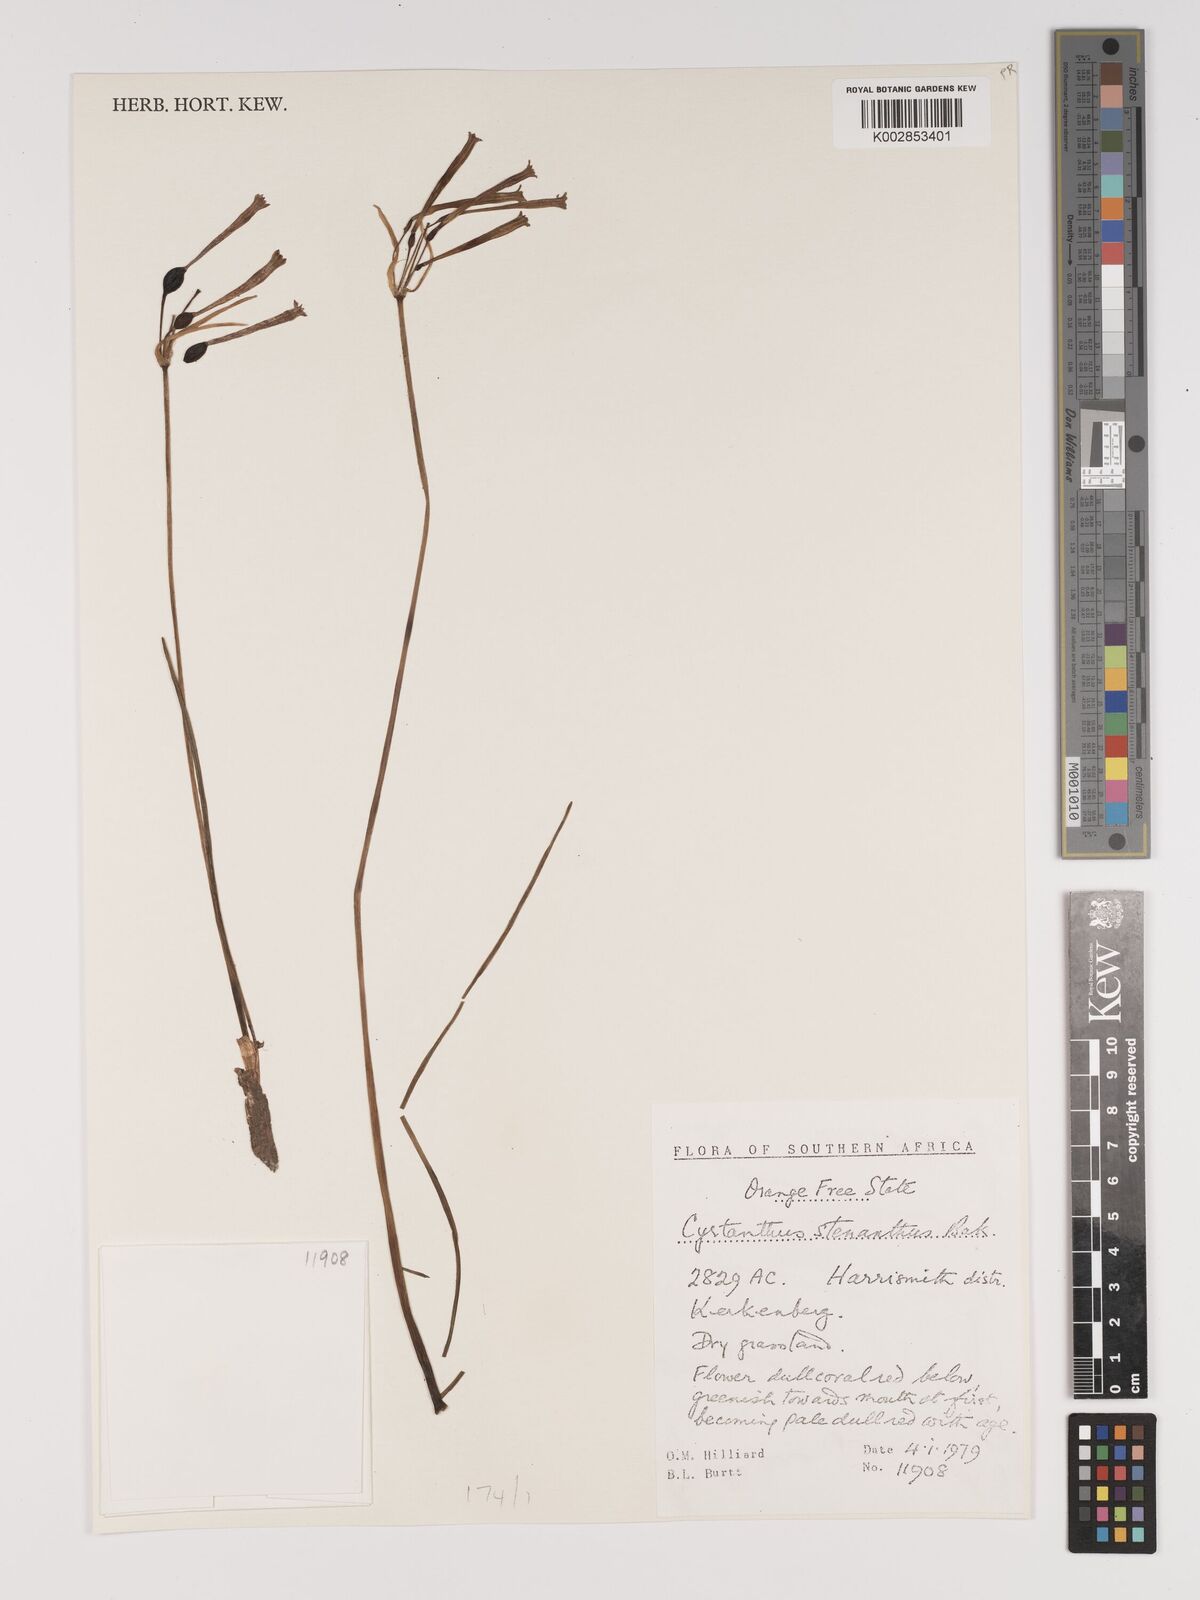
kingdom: Plantae
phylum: Tracheophyta
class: Liliopsida
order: Asparagales
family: Amaryllidaceae
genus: Cyrtanthus
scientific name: Cyrtanthus stenanthus
